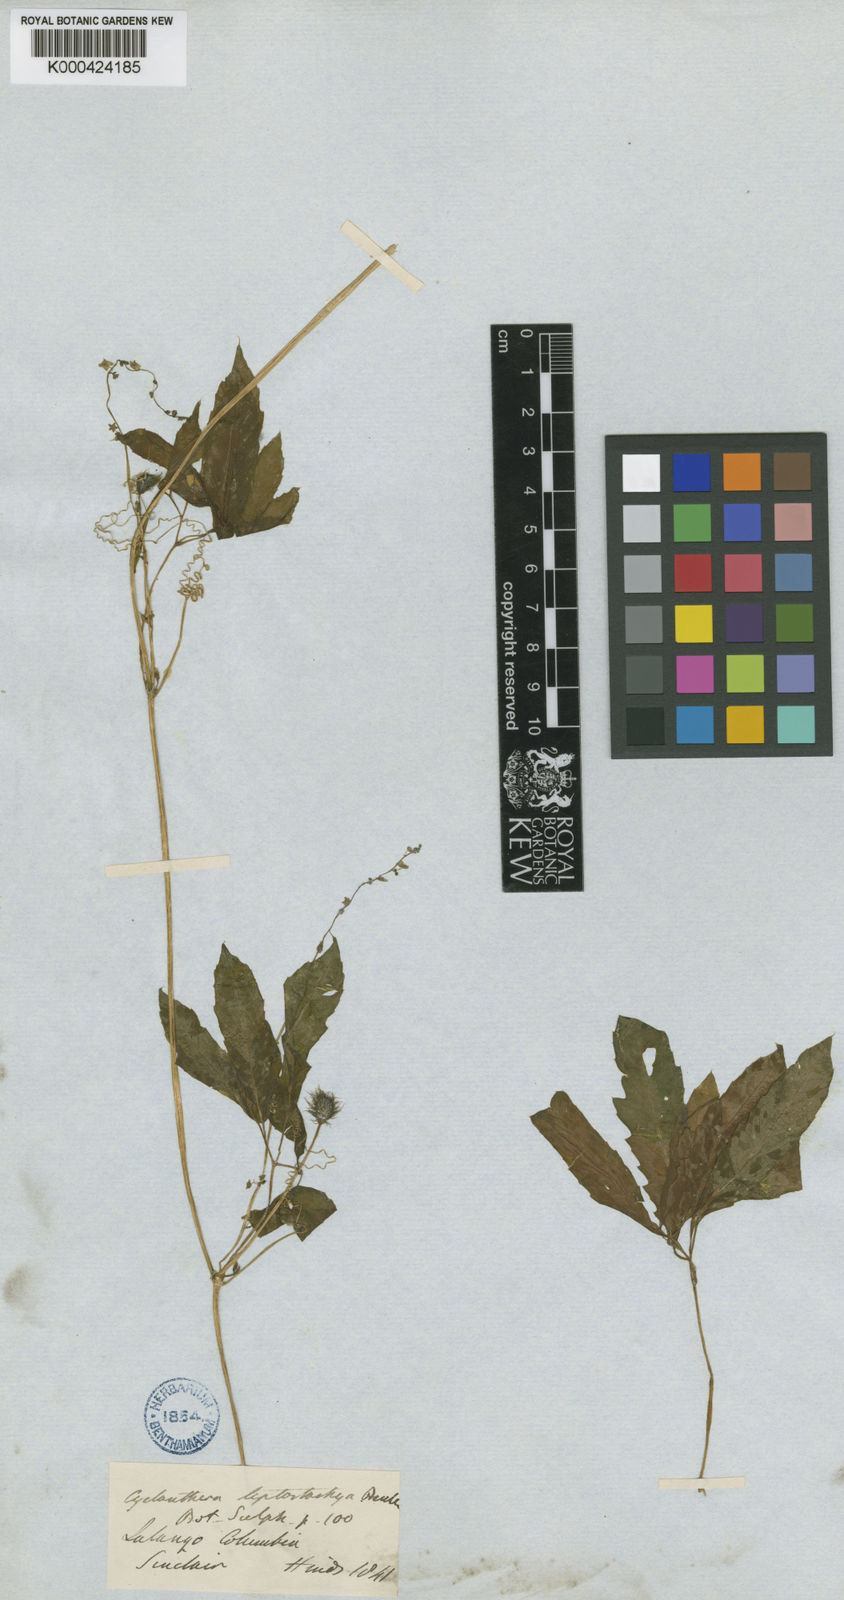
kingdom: Plantae
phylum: Tracheophyta
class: Magnoliopsida
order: Cucurbitales
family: Cucurbitaceae
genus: Cyclanthera
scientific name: Cyclanthera leptostachya
